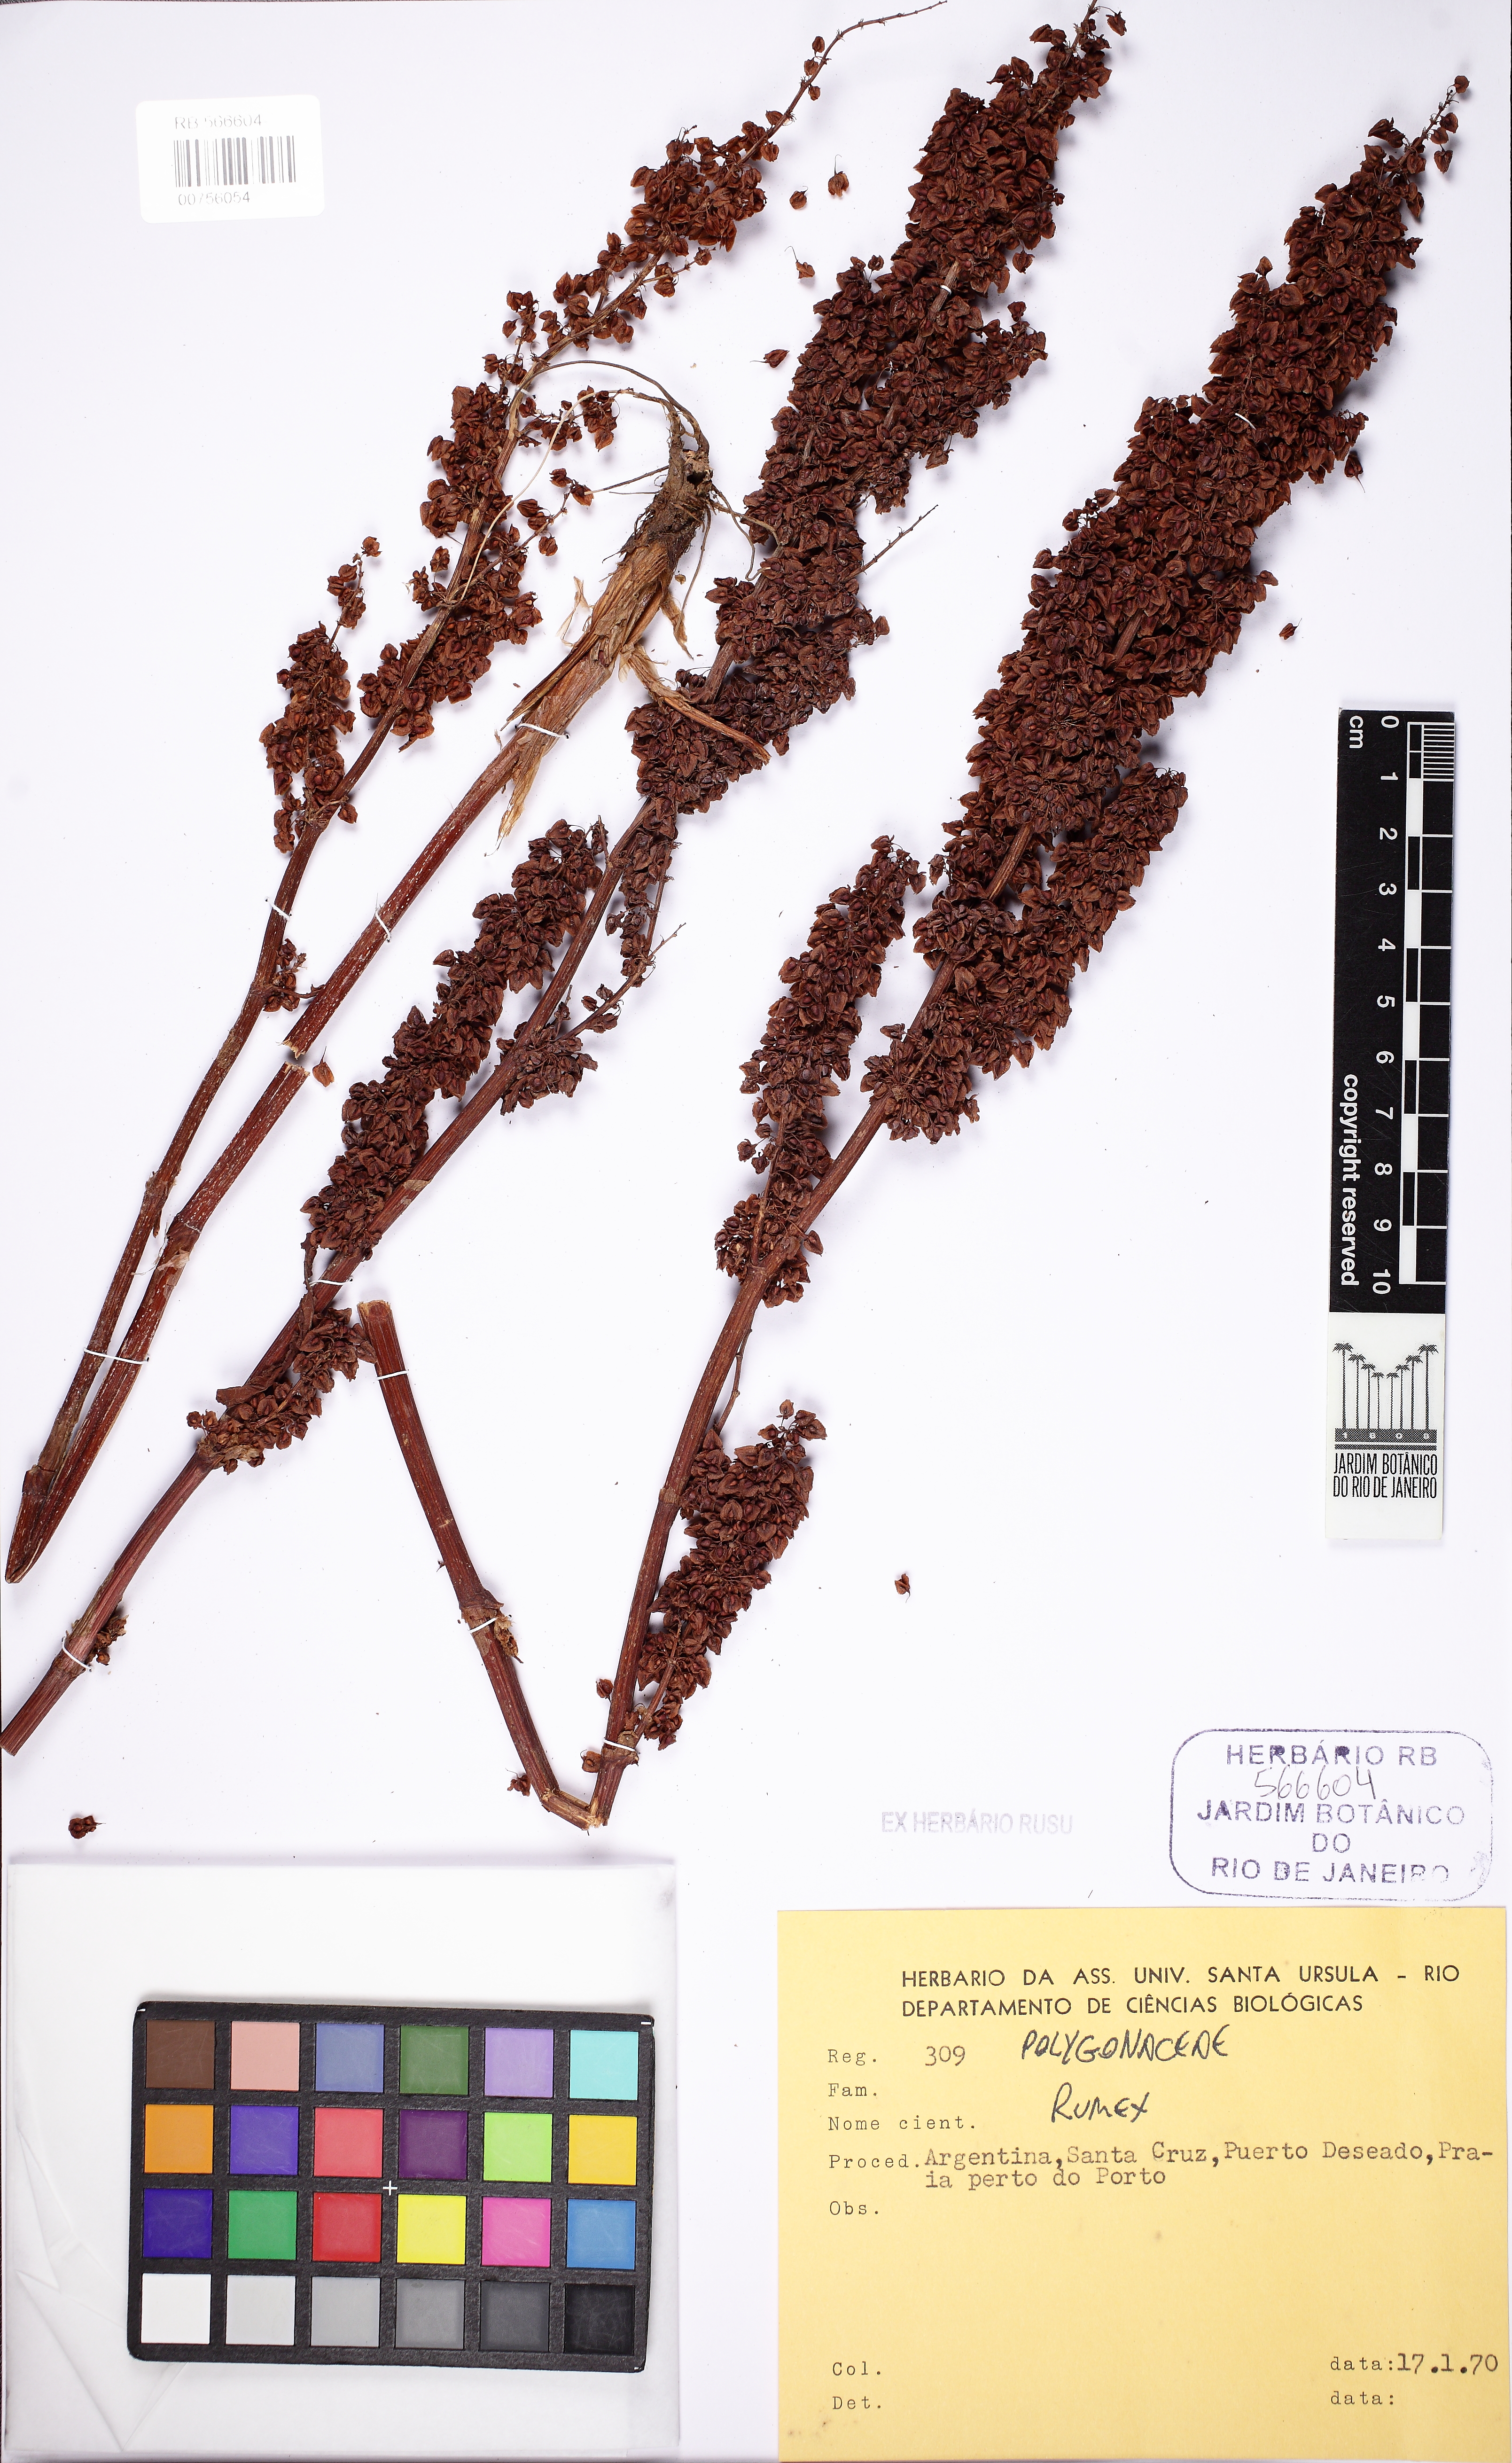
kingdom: Plantae
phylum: Tracheophyta
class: Magnoliopsida
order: Caryophyllales
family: Polygonaceae
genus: Rumex
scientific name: Rumex
